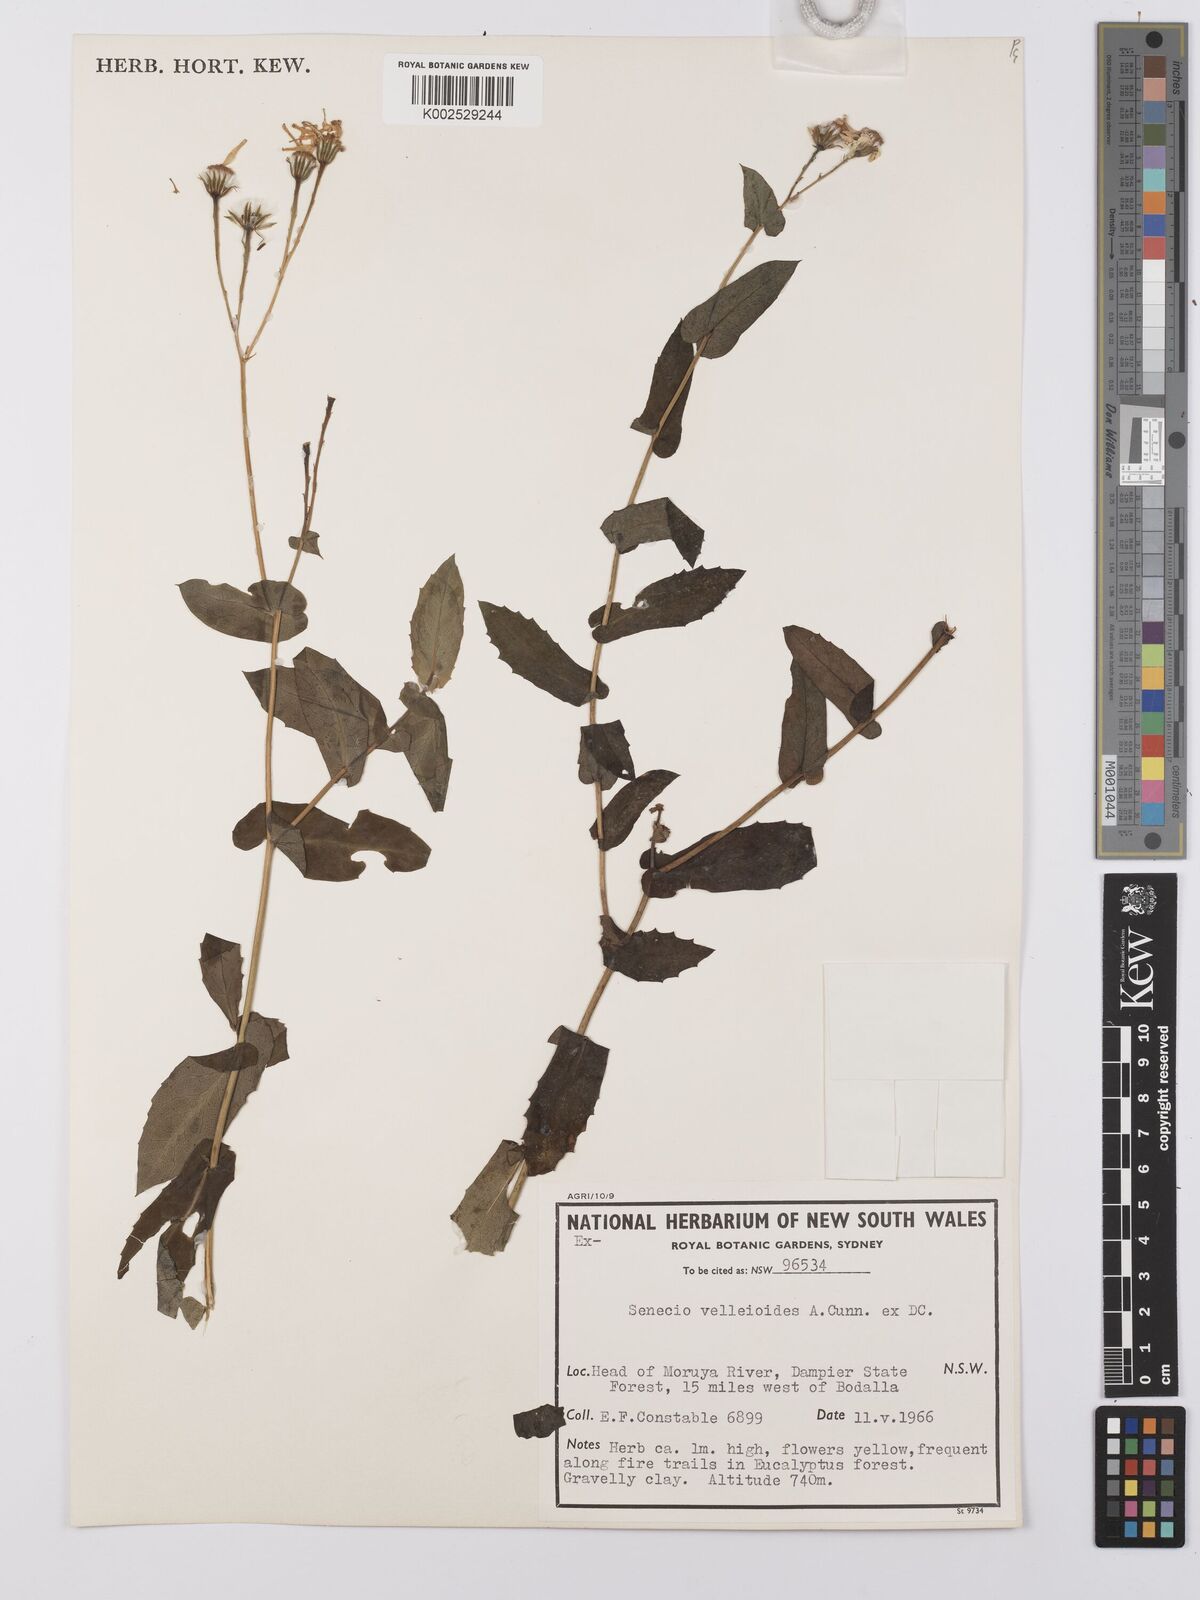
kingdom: Plantae
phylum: Tracheophyta
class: Magnoliopsida
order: Asterales
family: Asteraceae
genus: Lordhowea
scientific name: Lordhowea velleioides
